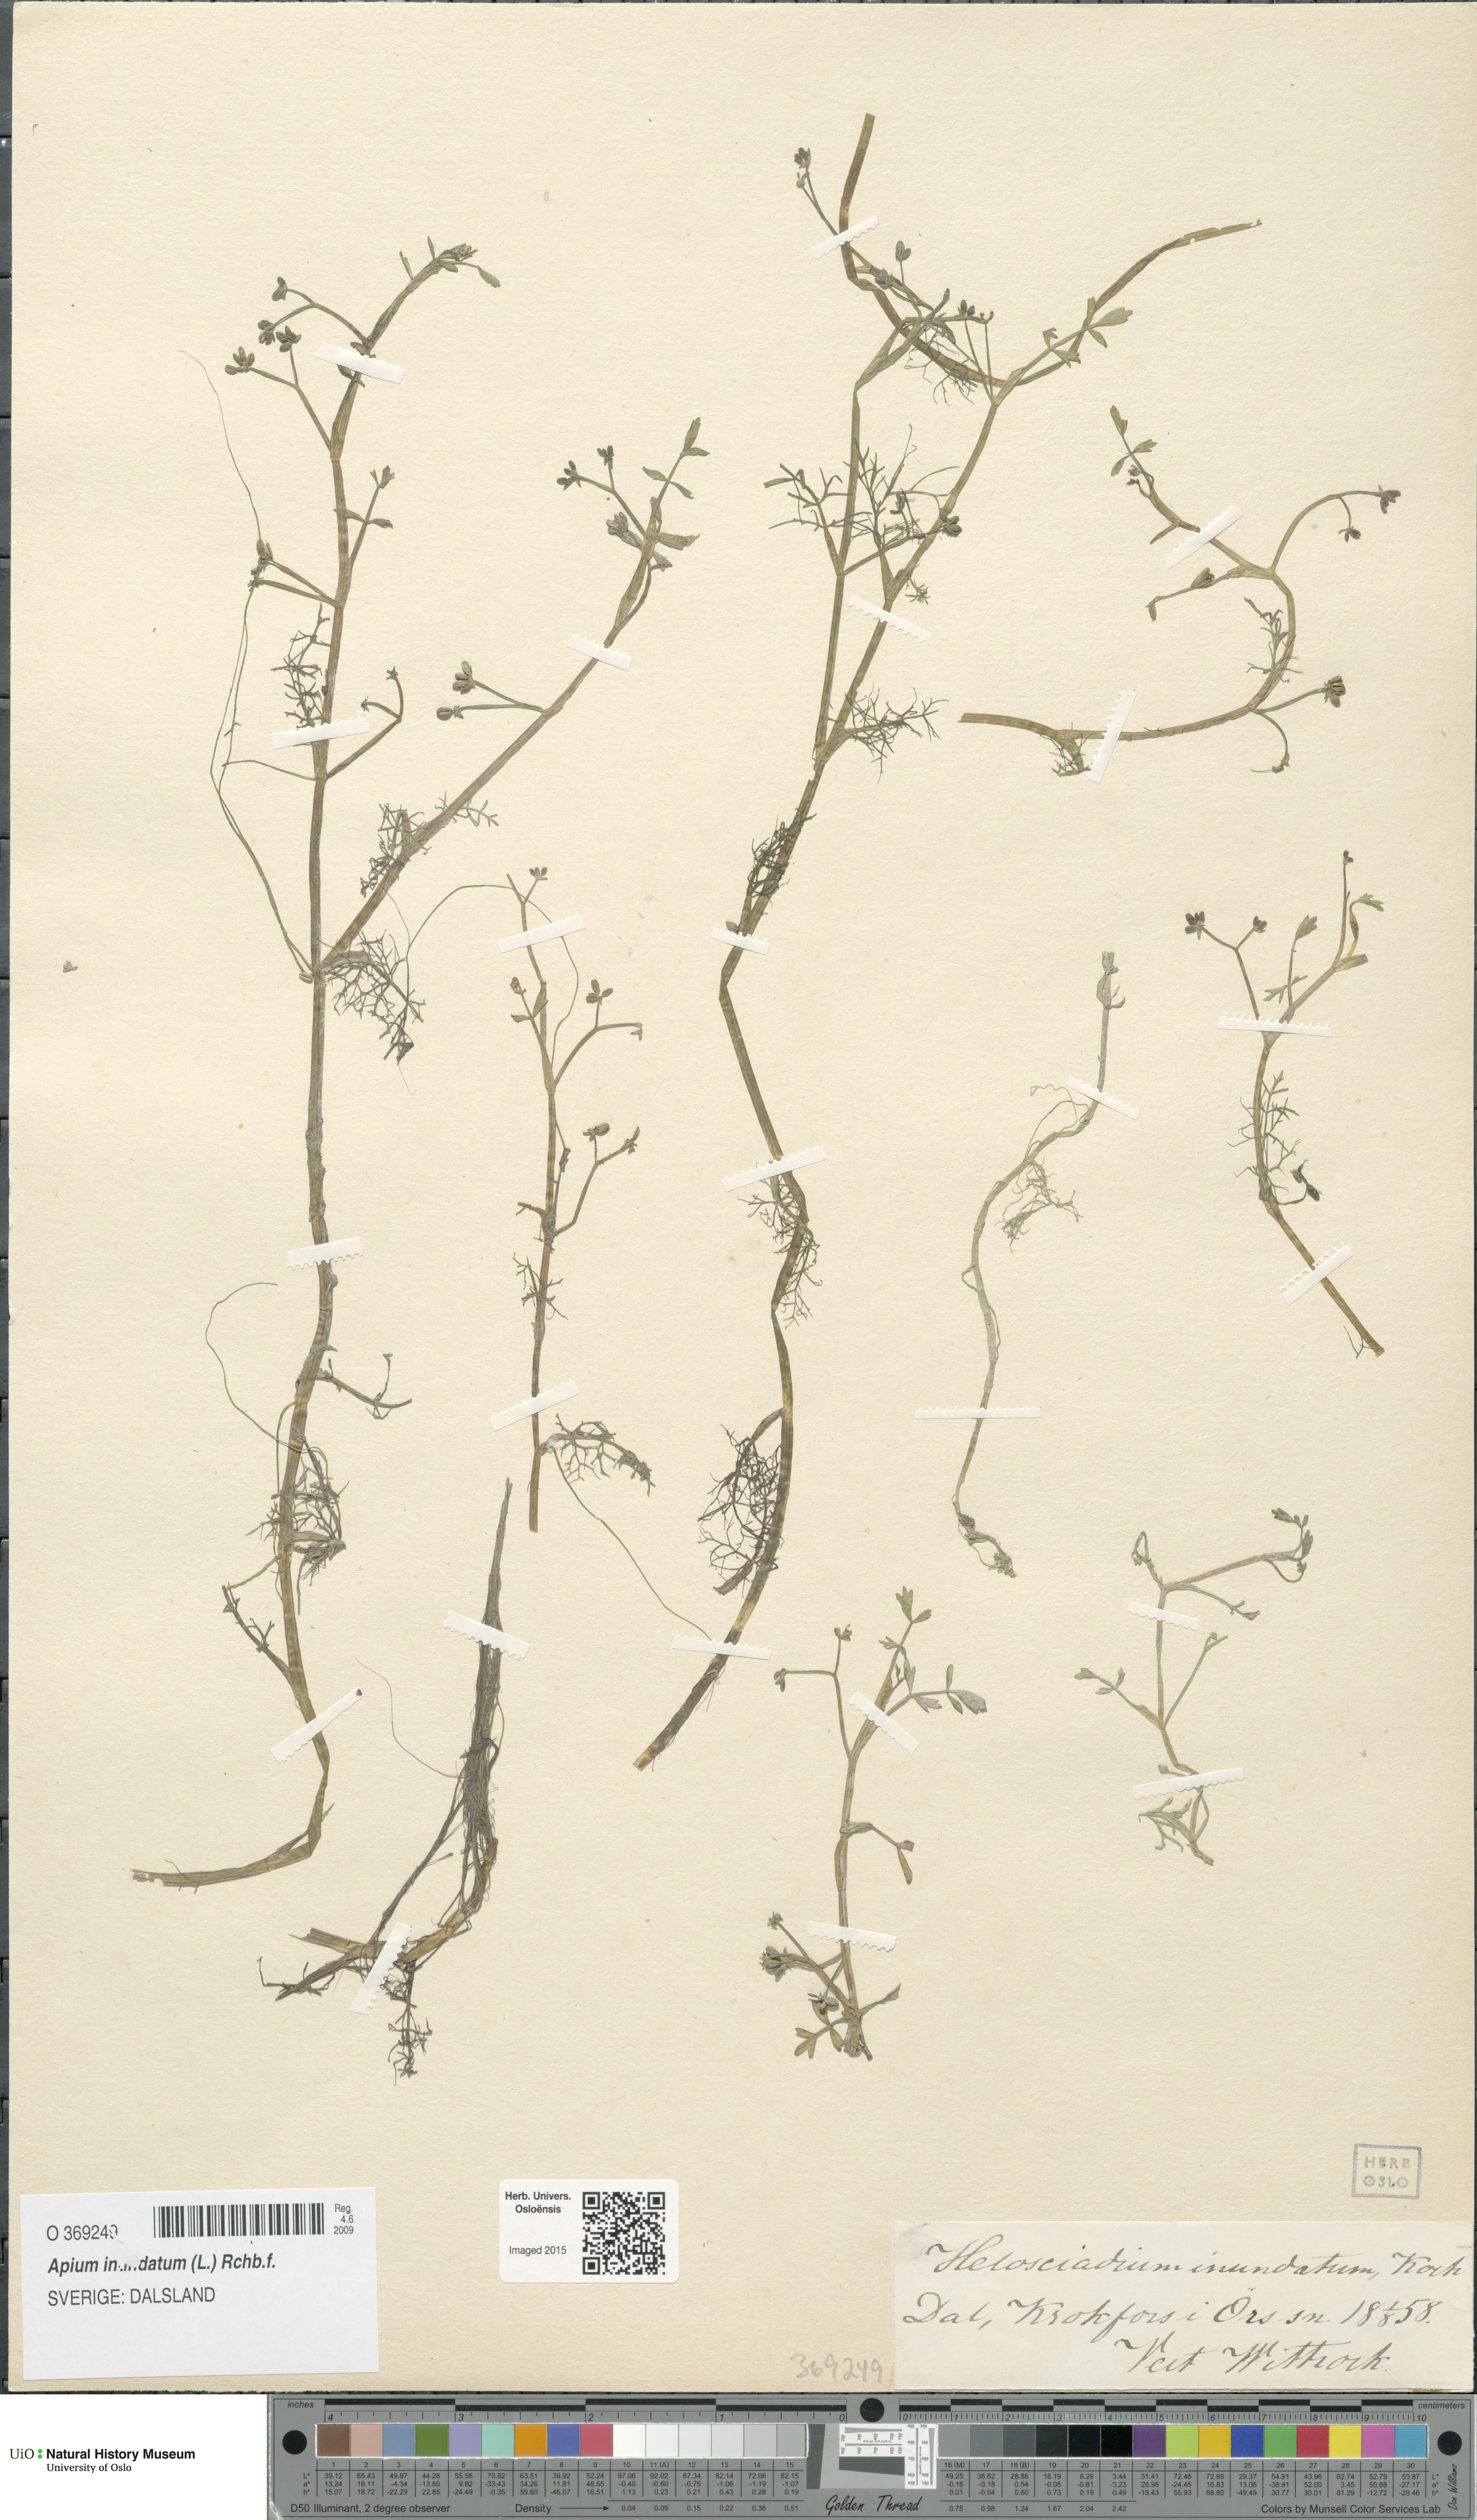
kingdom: Plantae
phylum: Tracheophyta
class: Magnoliopsida
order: Apiales
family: Apiaceae
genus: Helosciadium
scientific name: Helosciadium inundatum
